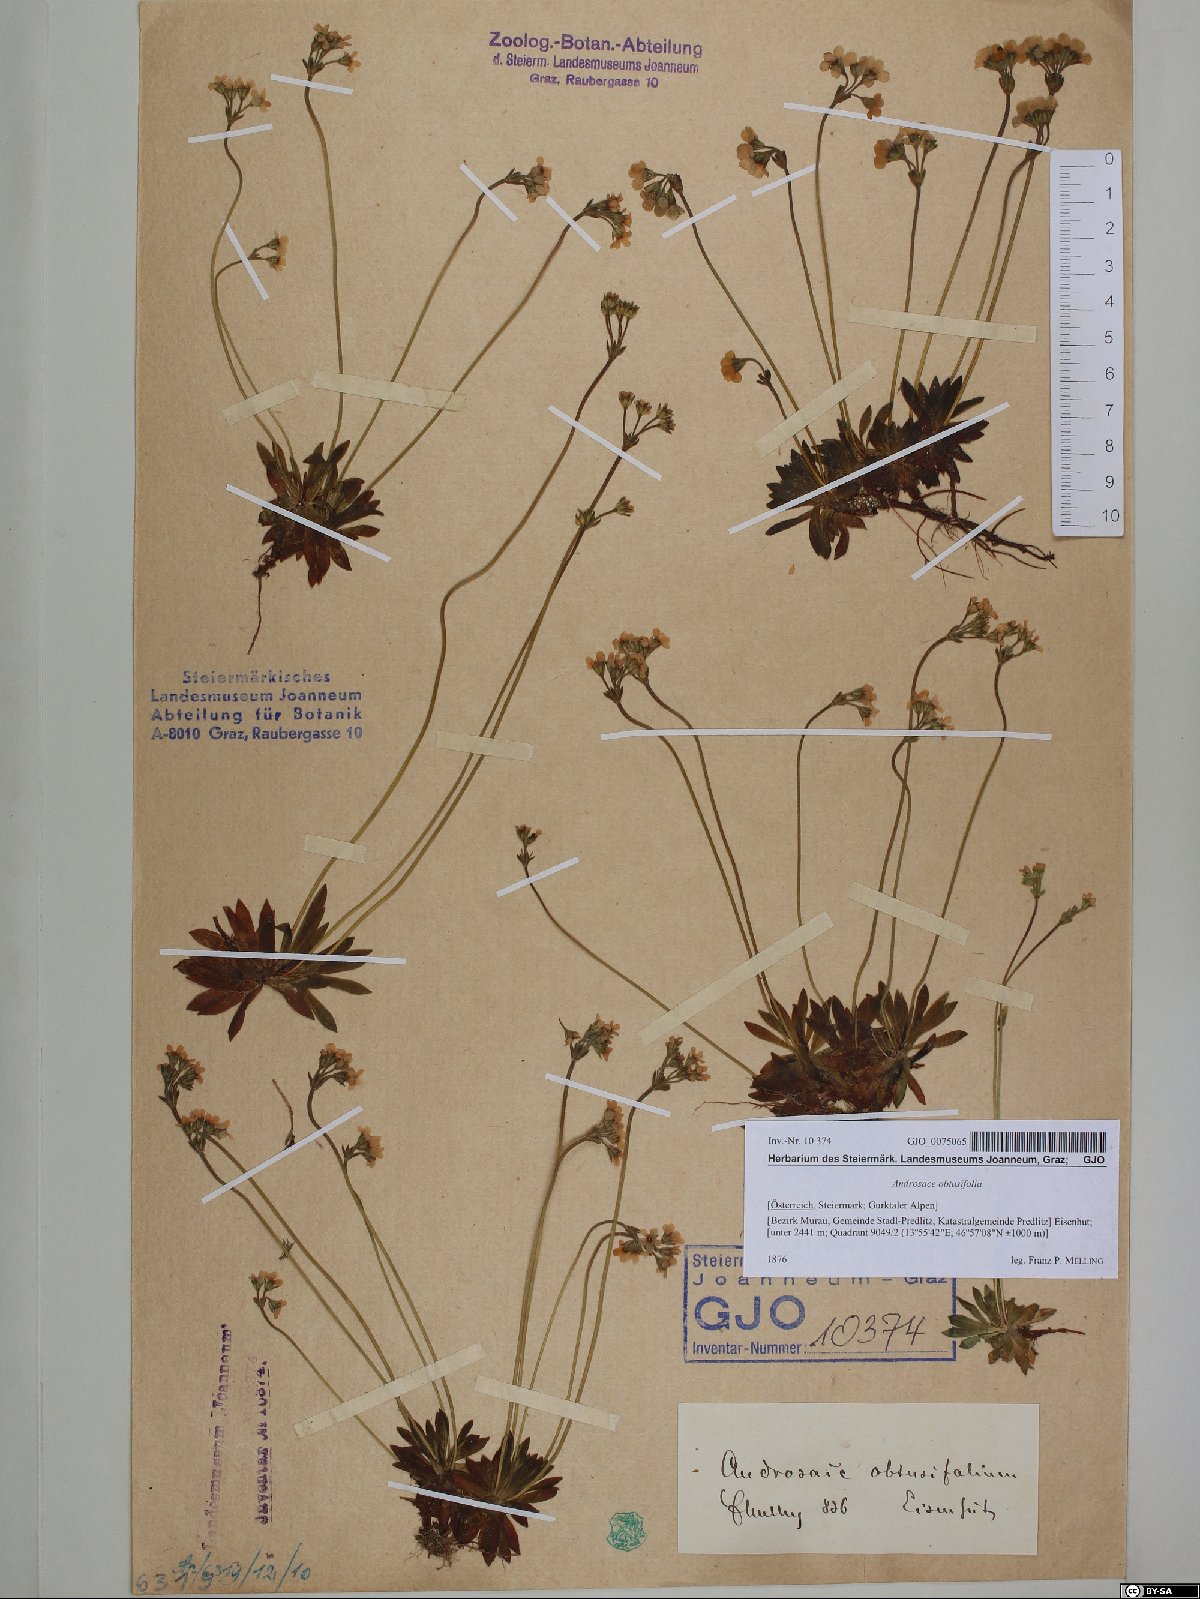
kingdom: Plantae
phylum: Tracheophyta
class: Magnoliopsida
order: Ericales
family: Primulaceae
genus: Androsace
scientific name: Androsace obtusifolia
